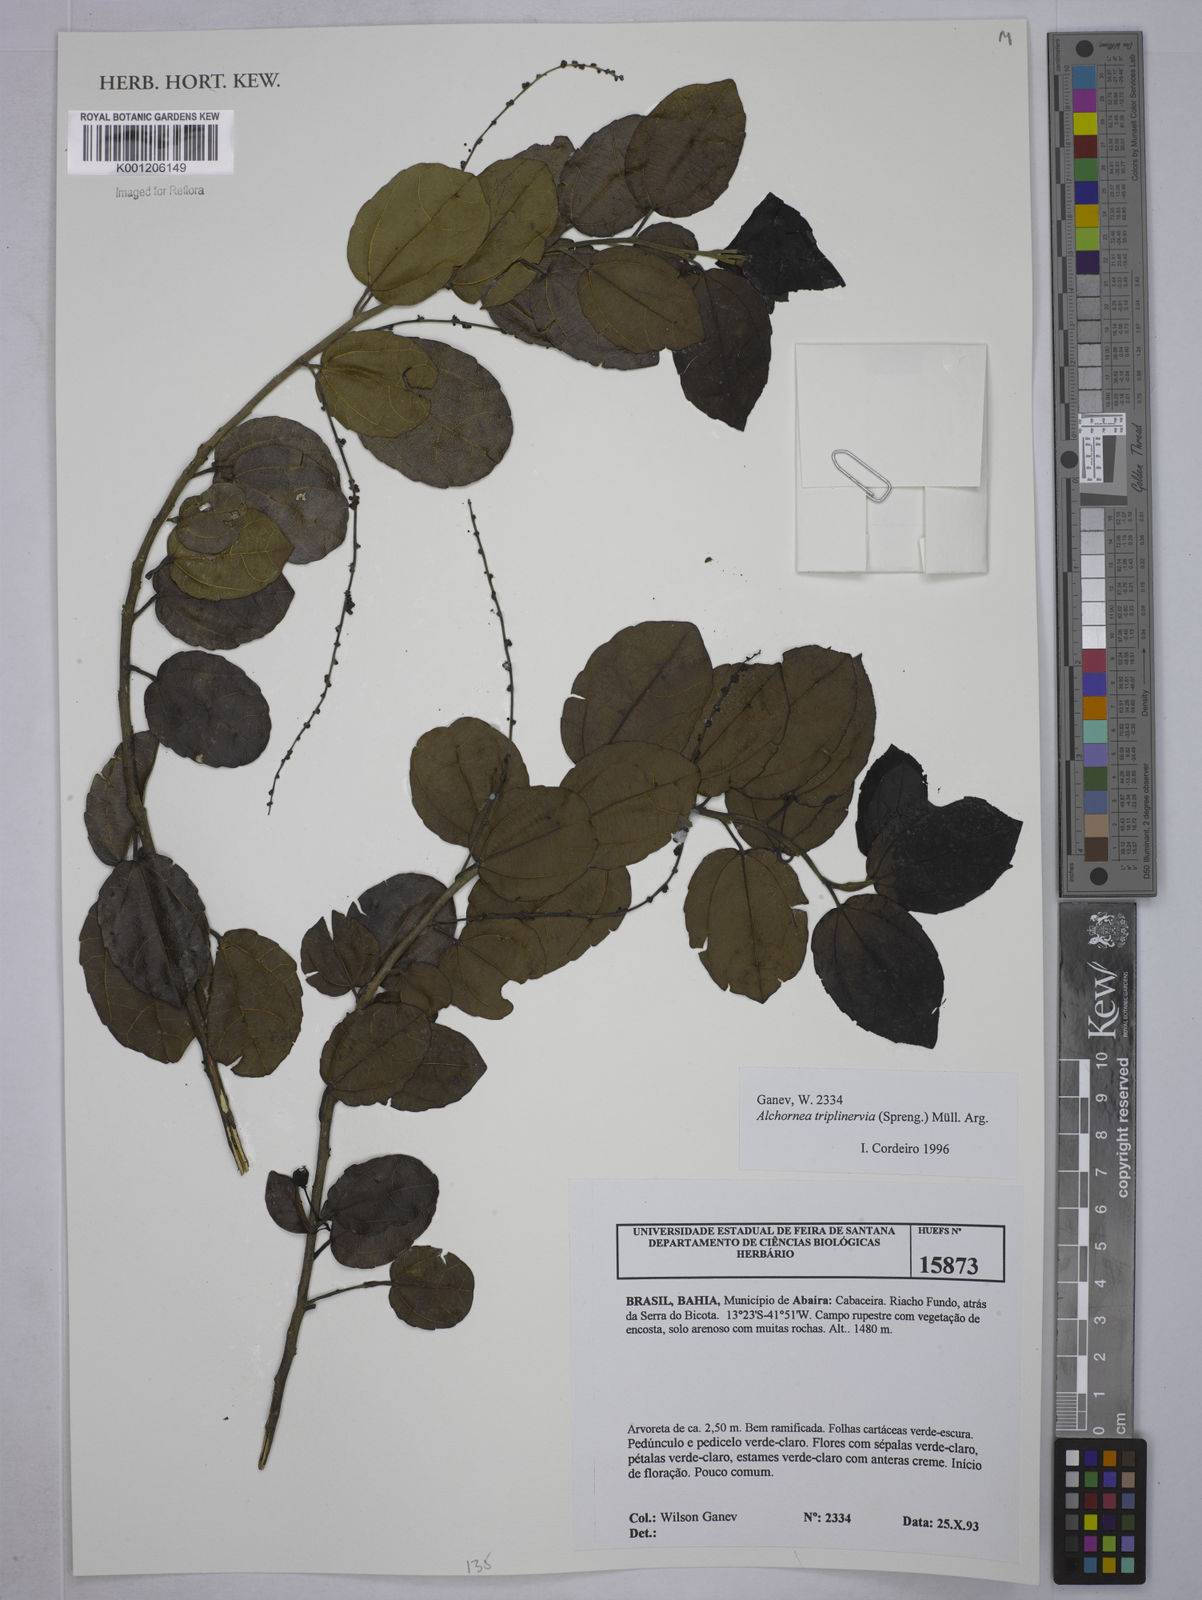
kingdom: Plantae
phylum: Tracheophyta
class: Magnoliopsida
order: Malpighiales
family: Euphorbiaceae
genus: Alchornea
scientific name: Alchornea
